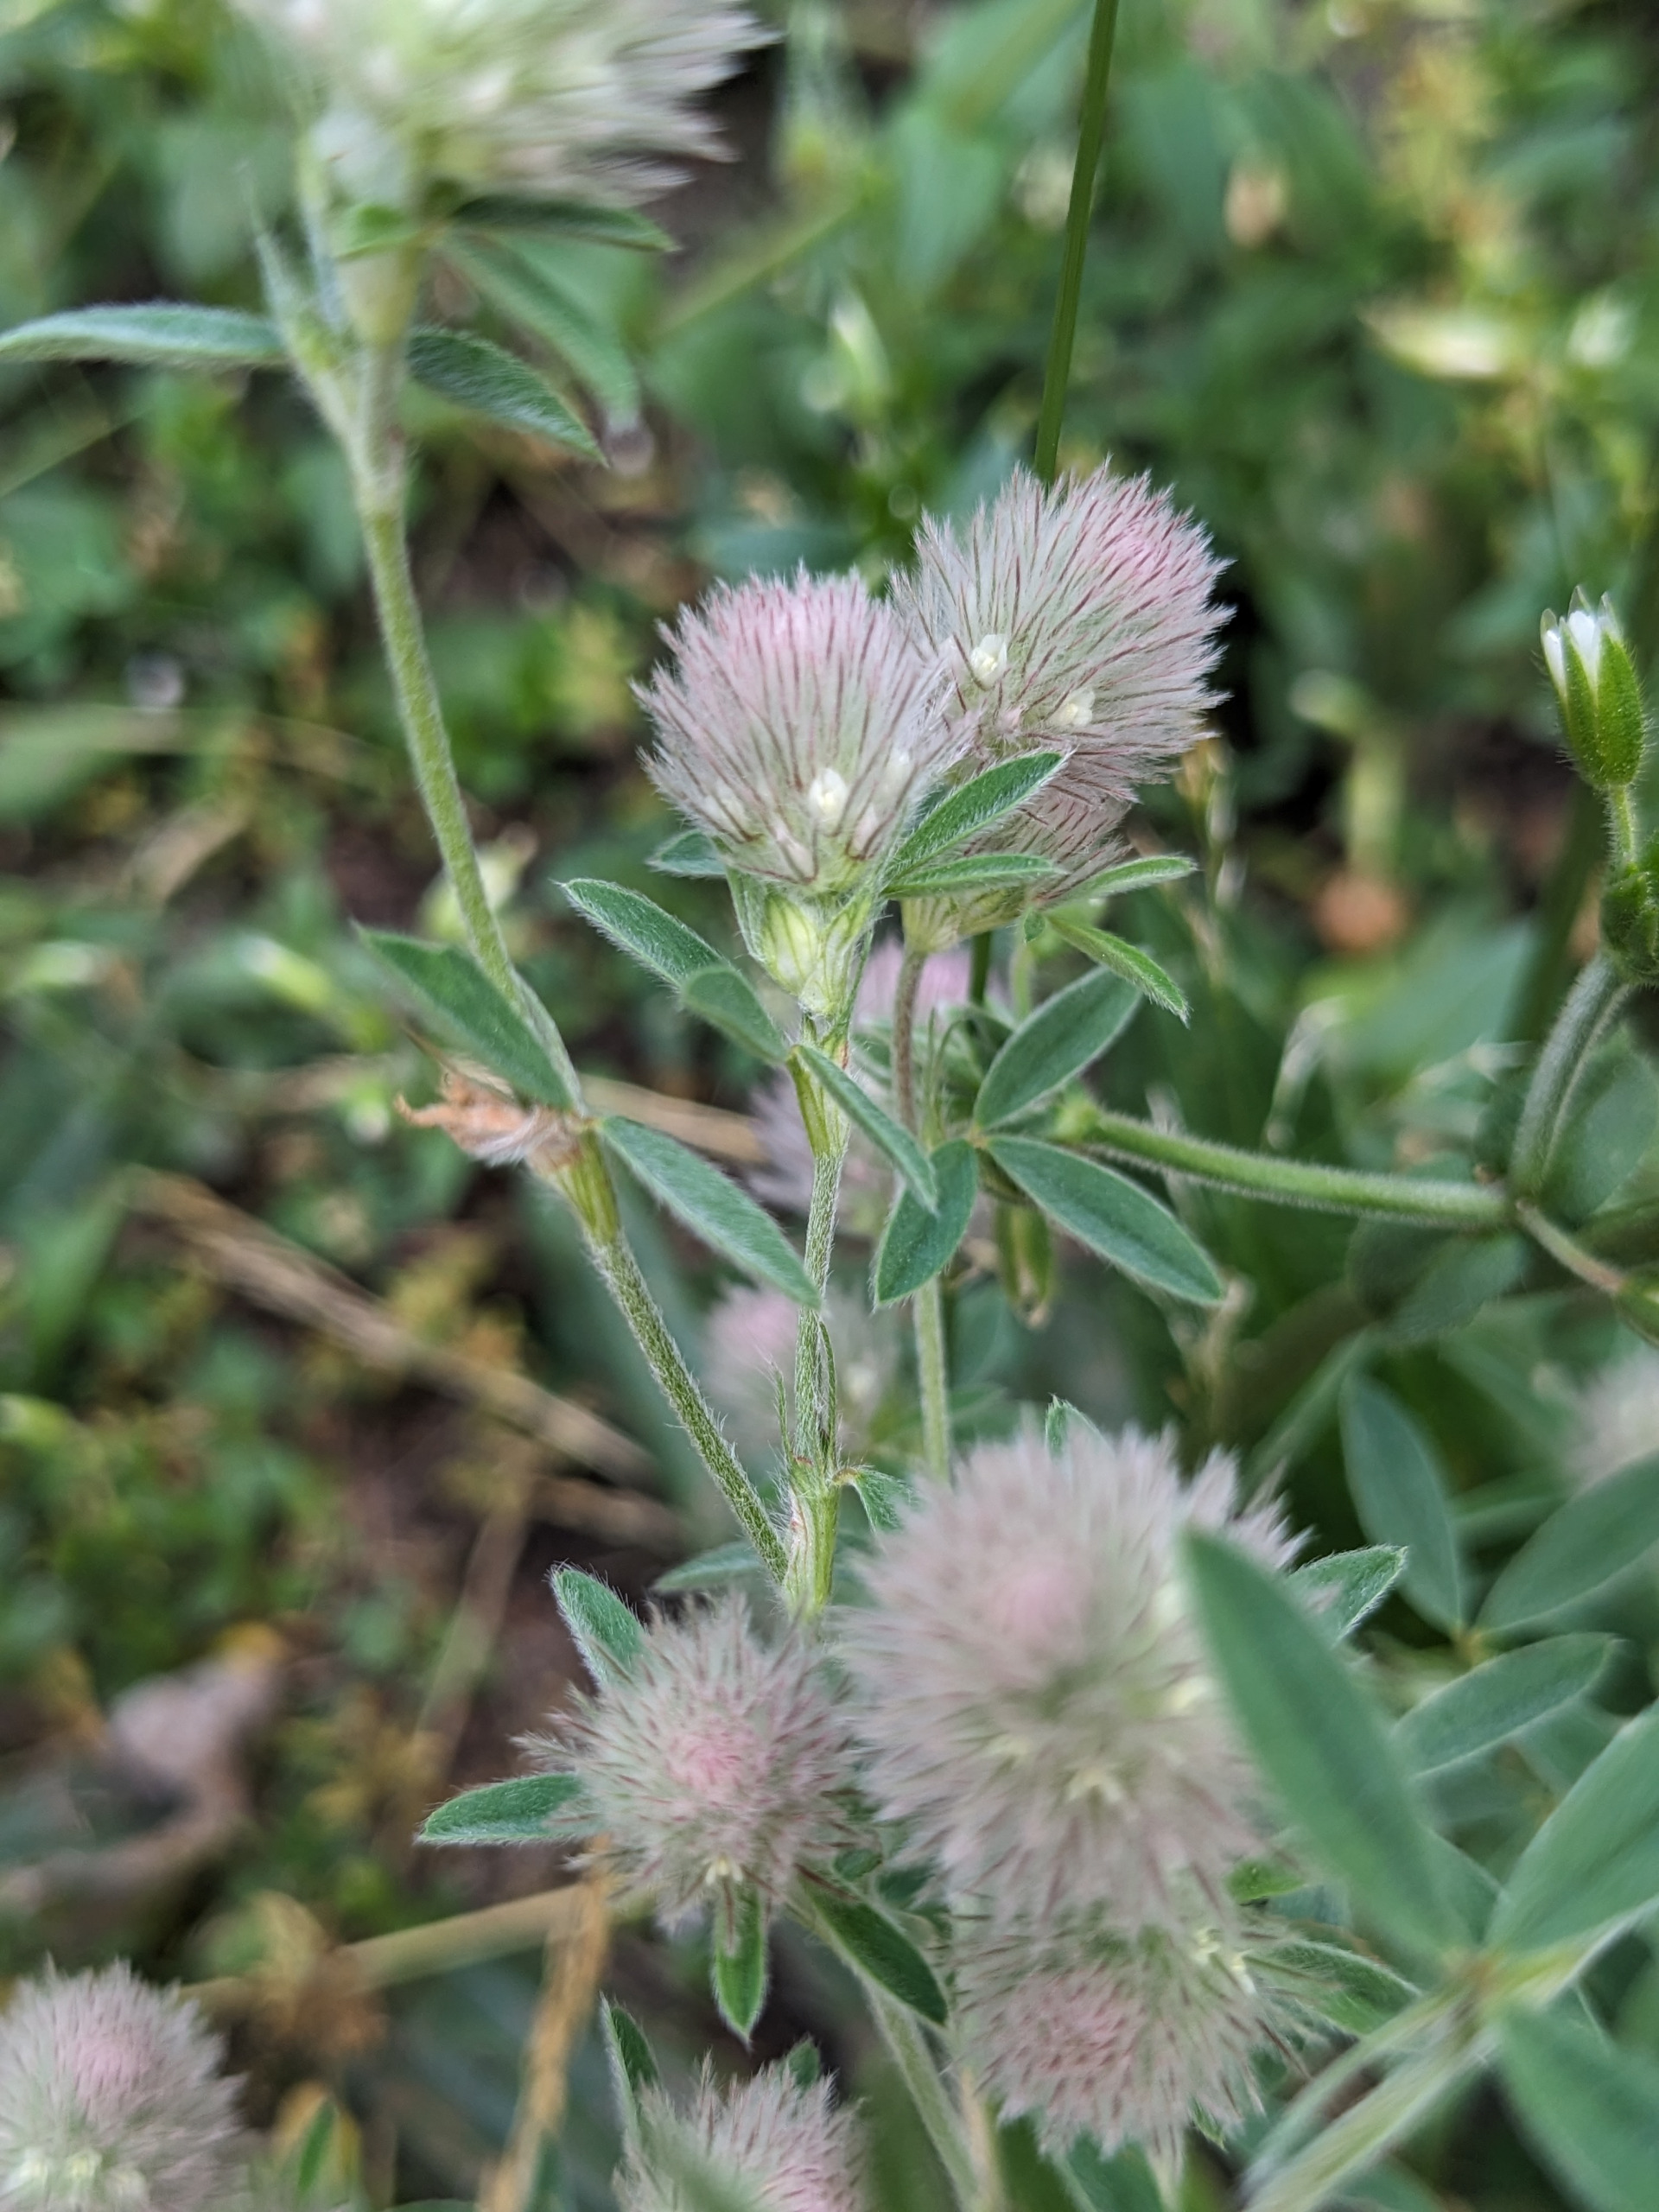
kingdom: Plantae
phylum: Tracheophyta
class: Magnoliopsida
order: Fabales
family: Fabaceae
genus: Trifolium
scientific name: Trifolium arvense
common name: Hare-kløver
